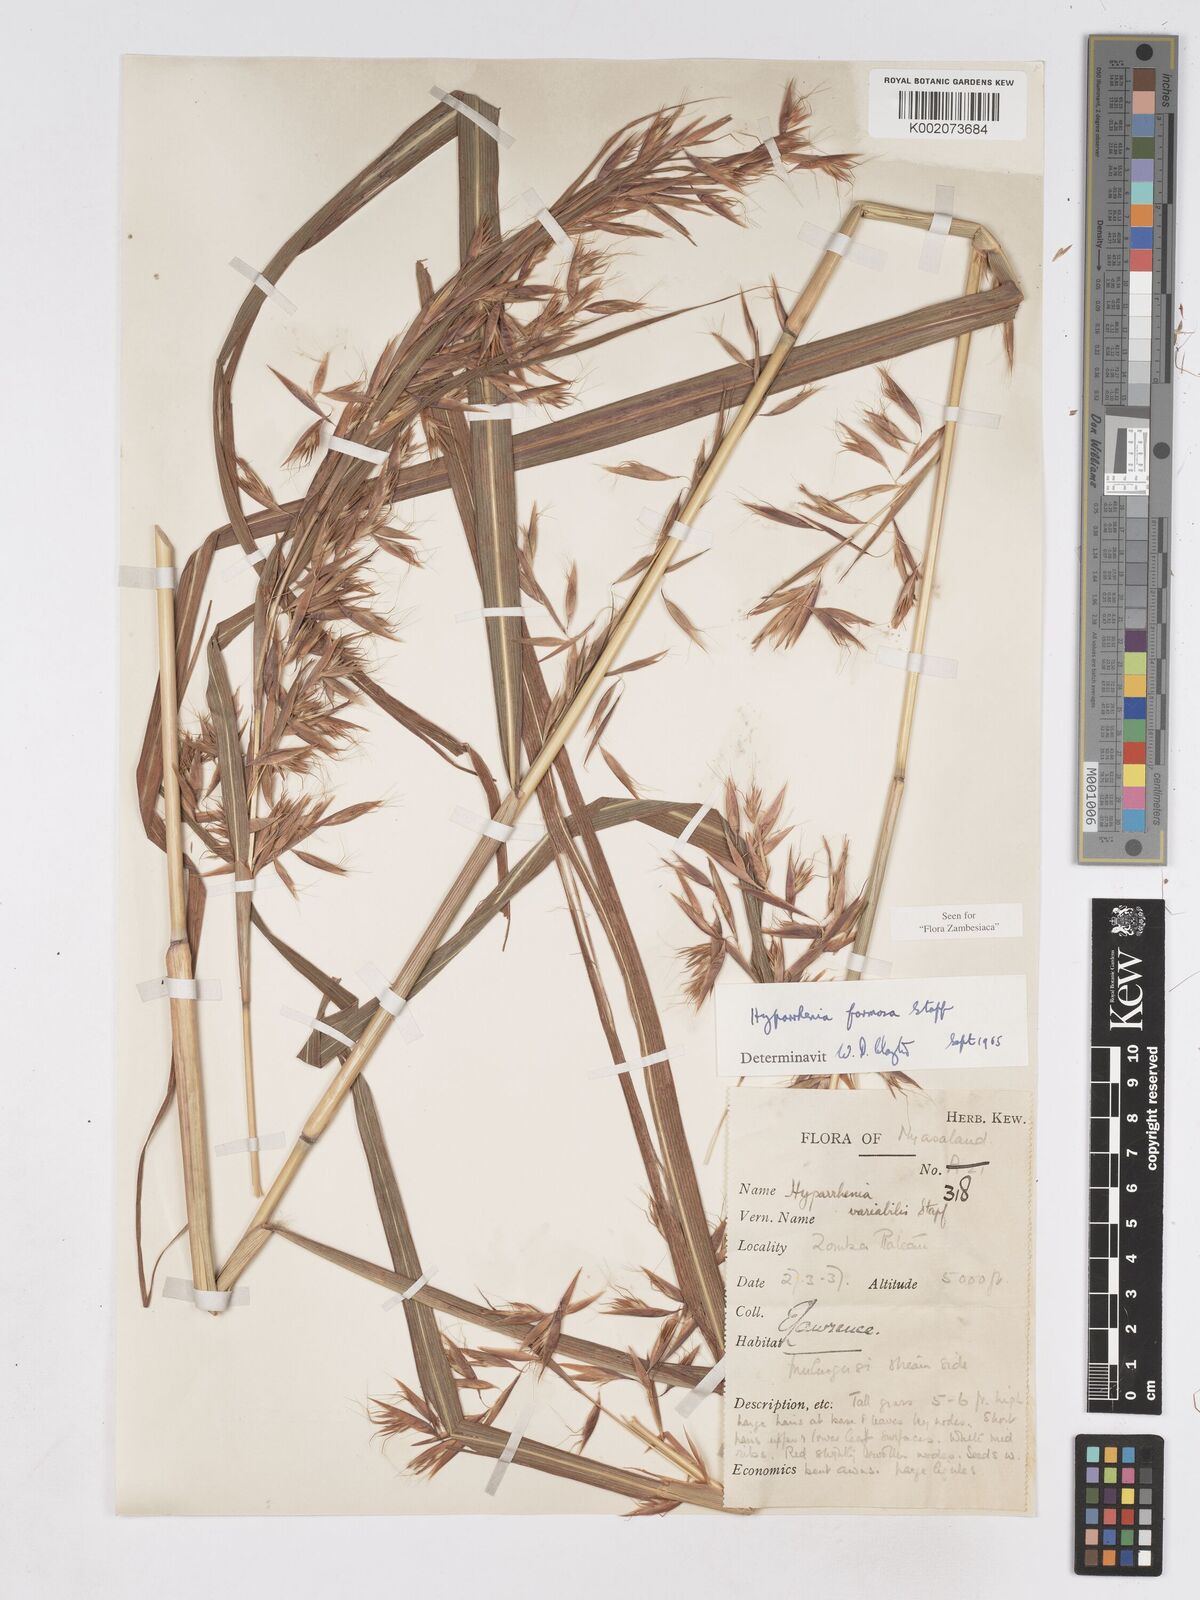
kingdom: Plantae
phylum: Tracheophyta
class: Liliopsida
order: Poales
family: Poaceae
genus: Hyparrhenia
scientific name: Hyparrhenia formosa
